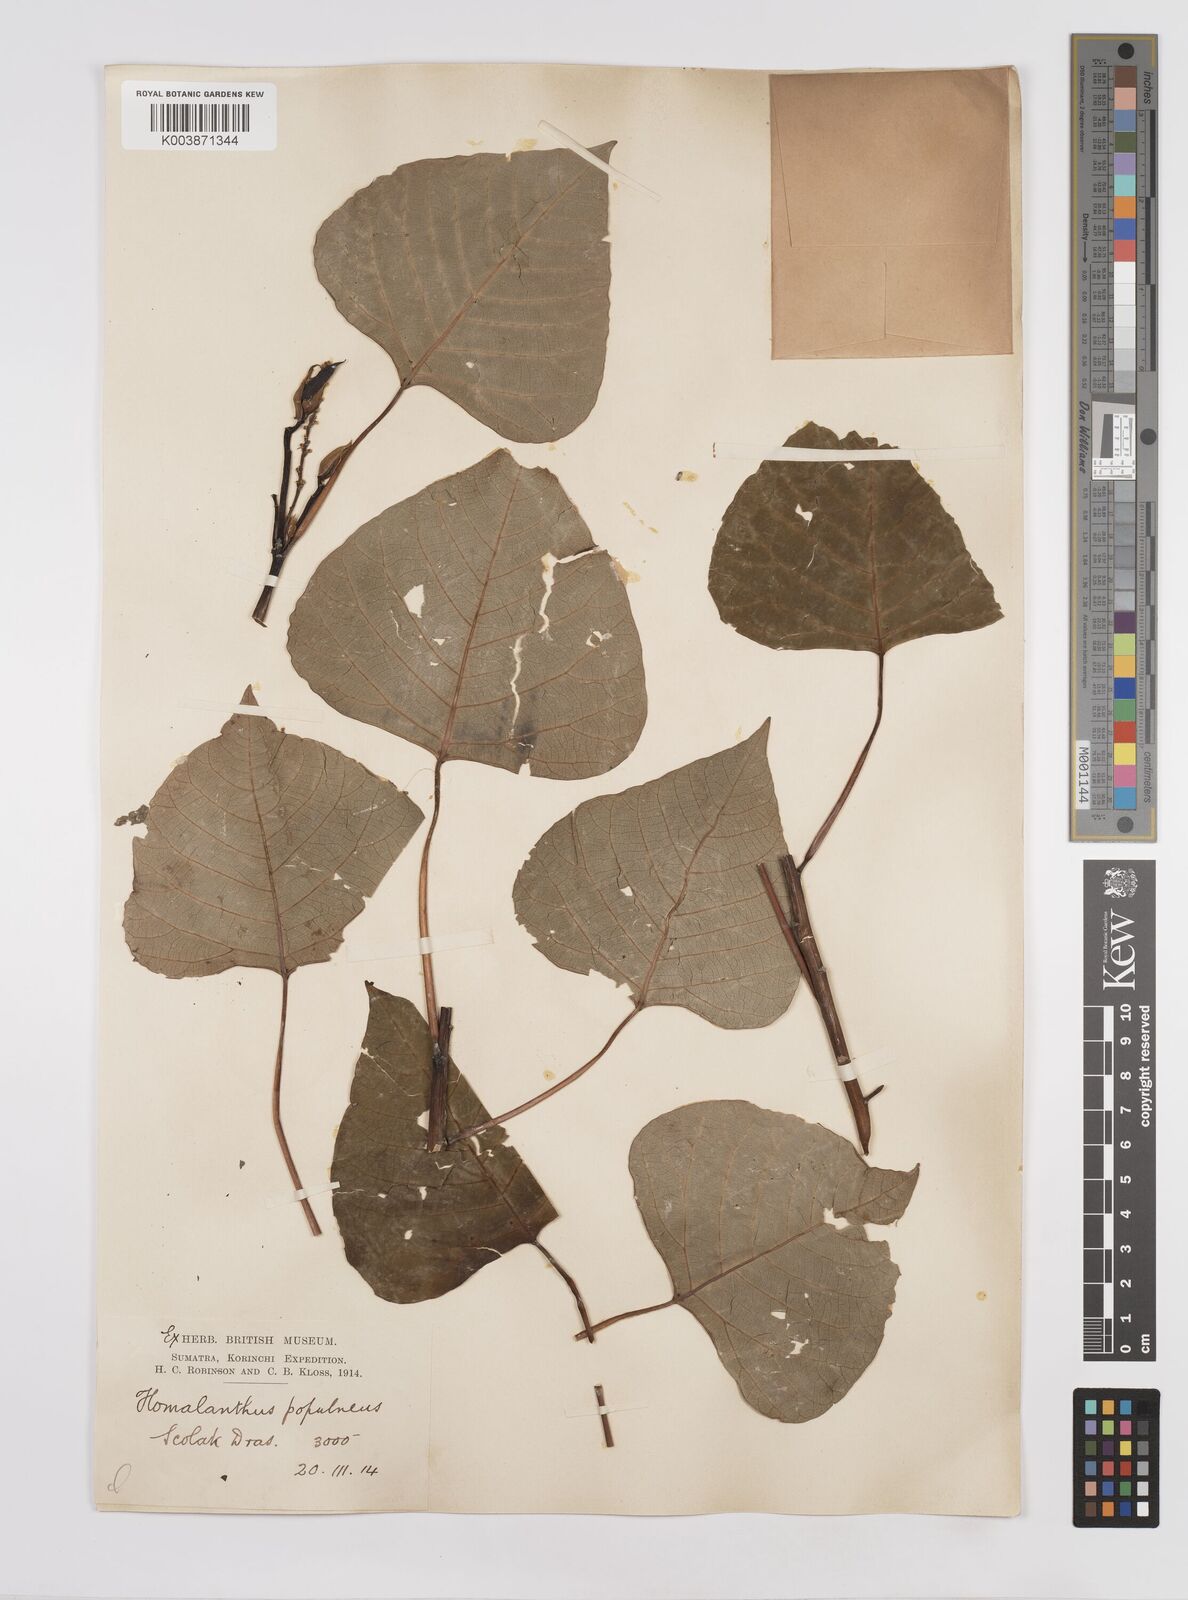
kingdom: Plantae
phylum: Tracheophyta
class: Magnoliopsida
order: Malpighiales
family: Euphorbiaceae
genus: Homalanthus
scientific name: Homalanthus populneus
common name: Spurge
